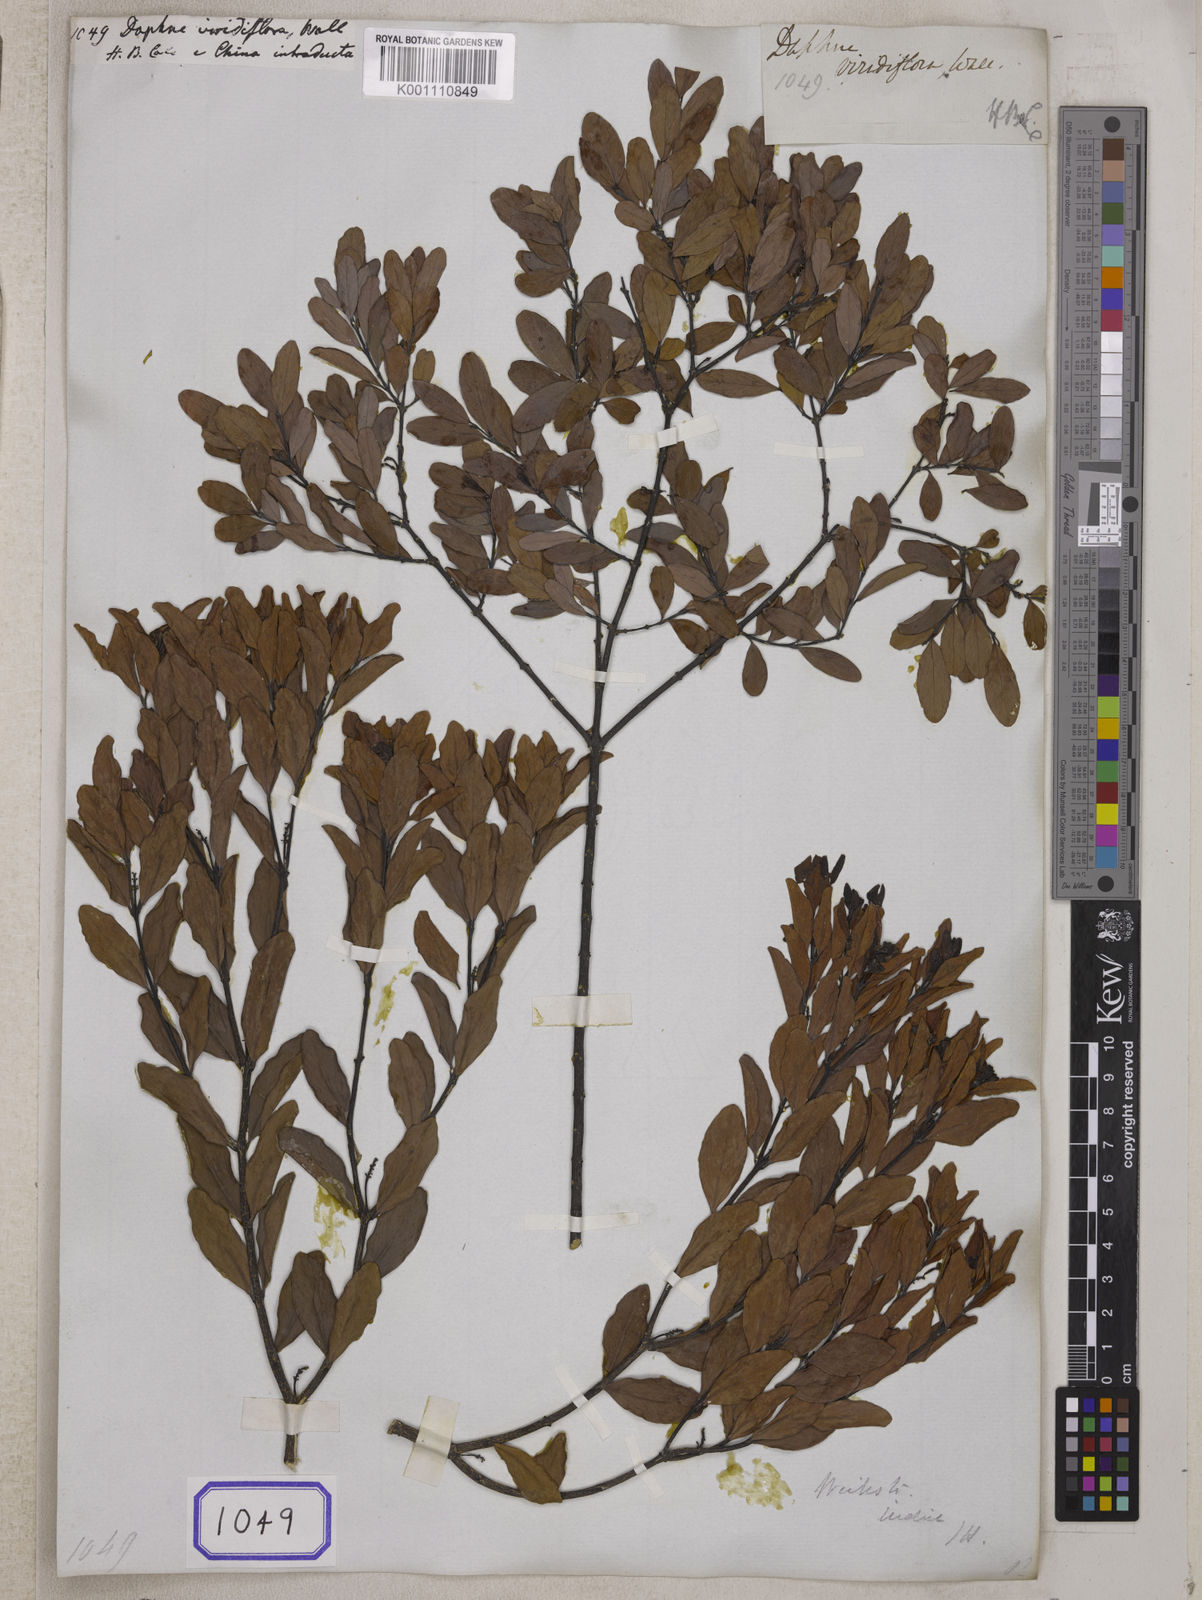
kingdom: Plantae
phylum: Tracheophyta
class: Magnoliopsida
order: Malvales
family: Thymelaeaceae
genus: Wikstroemia
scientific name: Wikstroemia indica
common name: Tiebush
